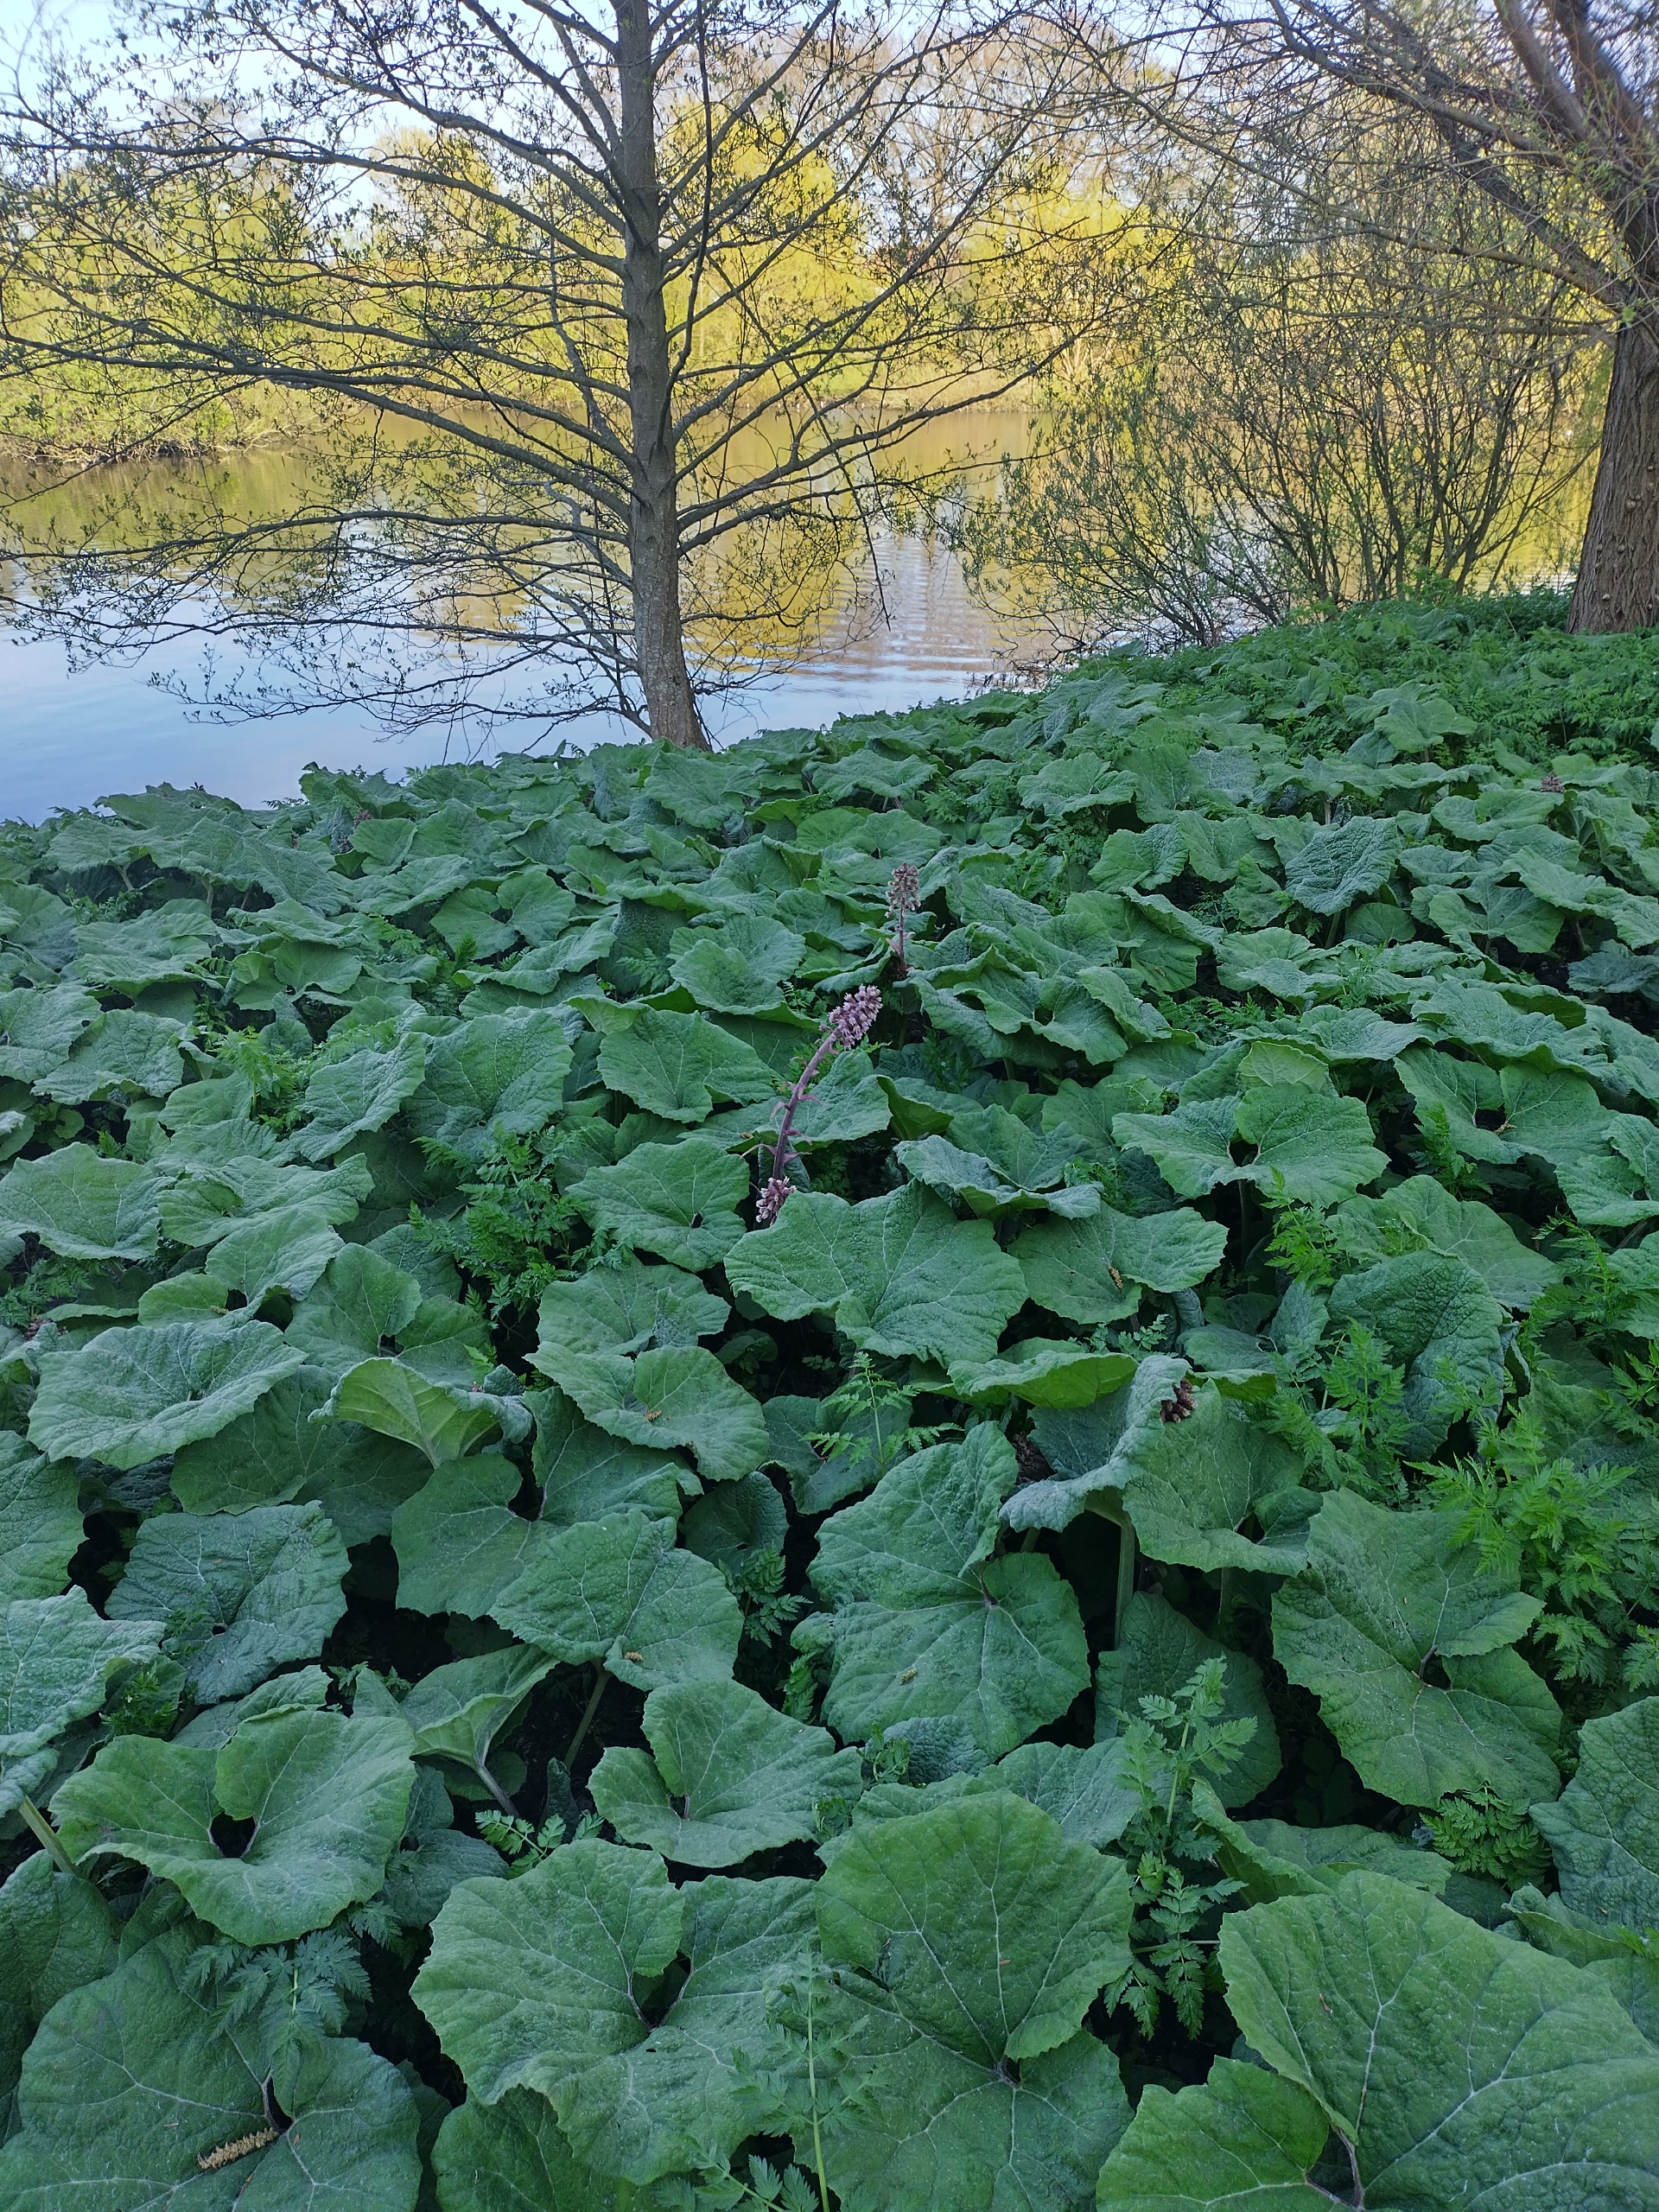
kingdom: Plantae
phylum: Tracheophyta
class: Magnoliopsida
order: Asterales
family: Asteraceae
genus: Petasites
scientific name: Petasites hybridus
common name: Rød hestehov
